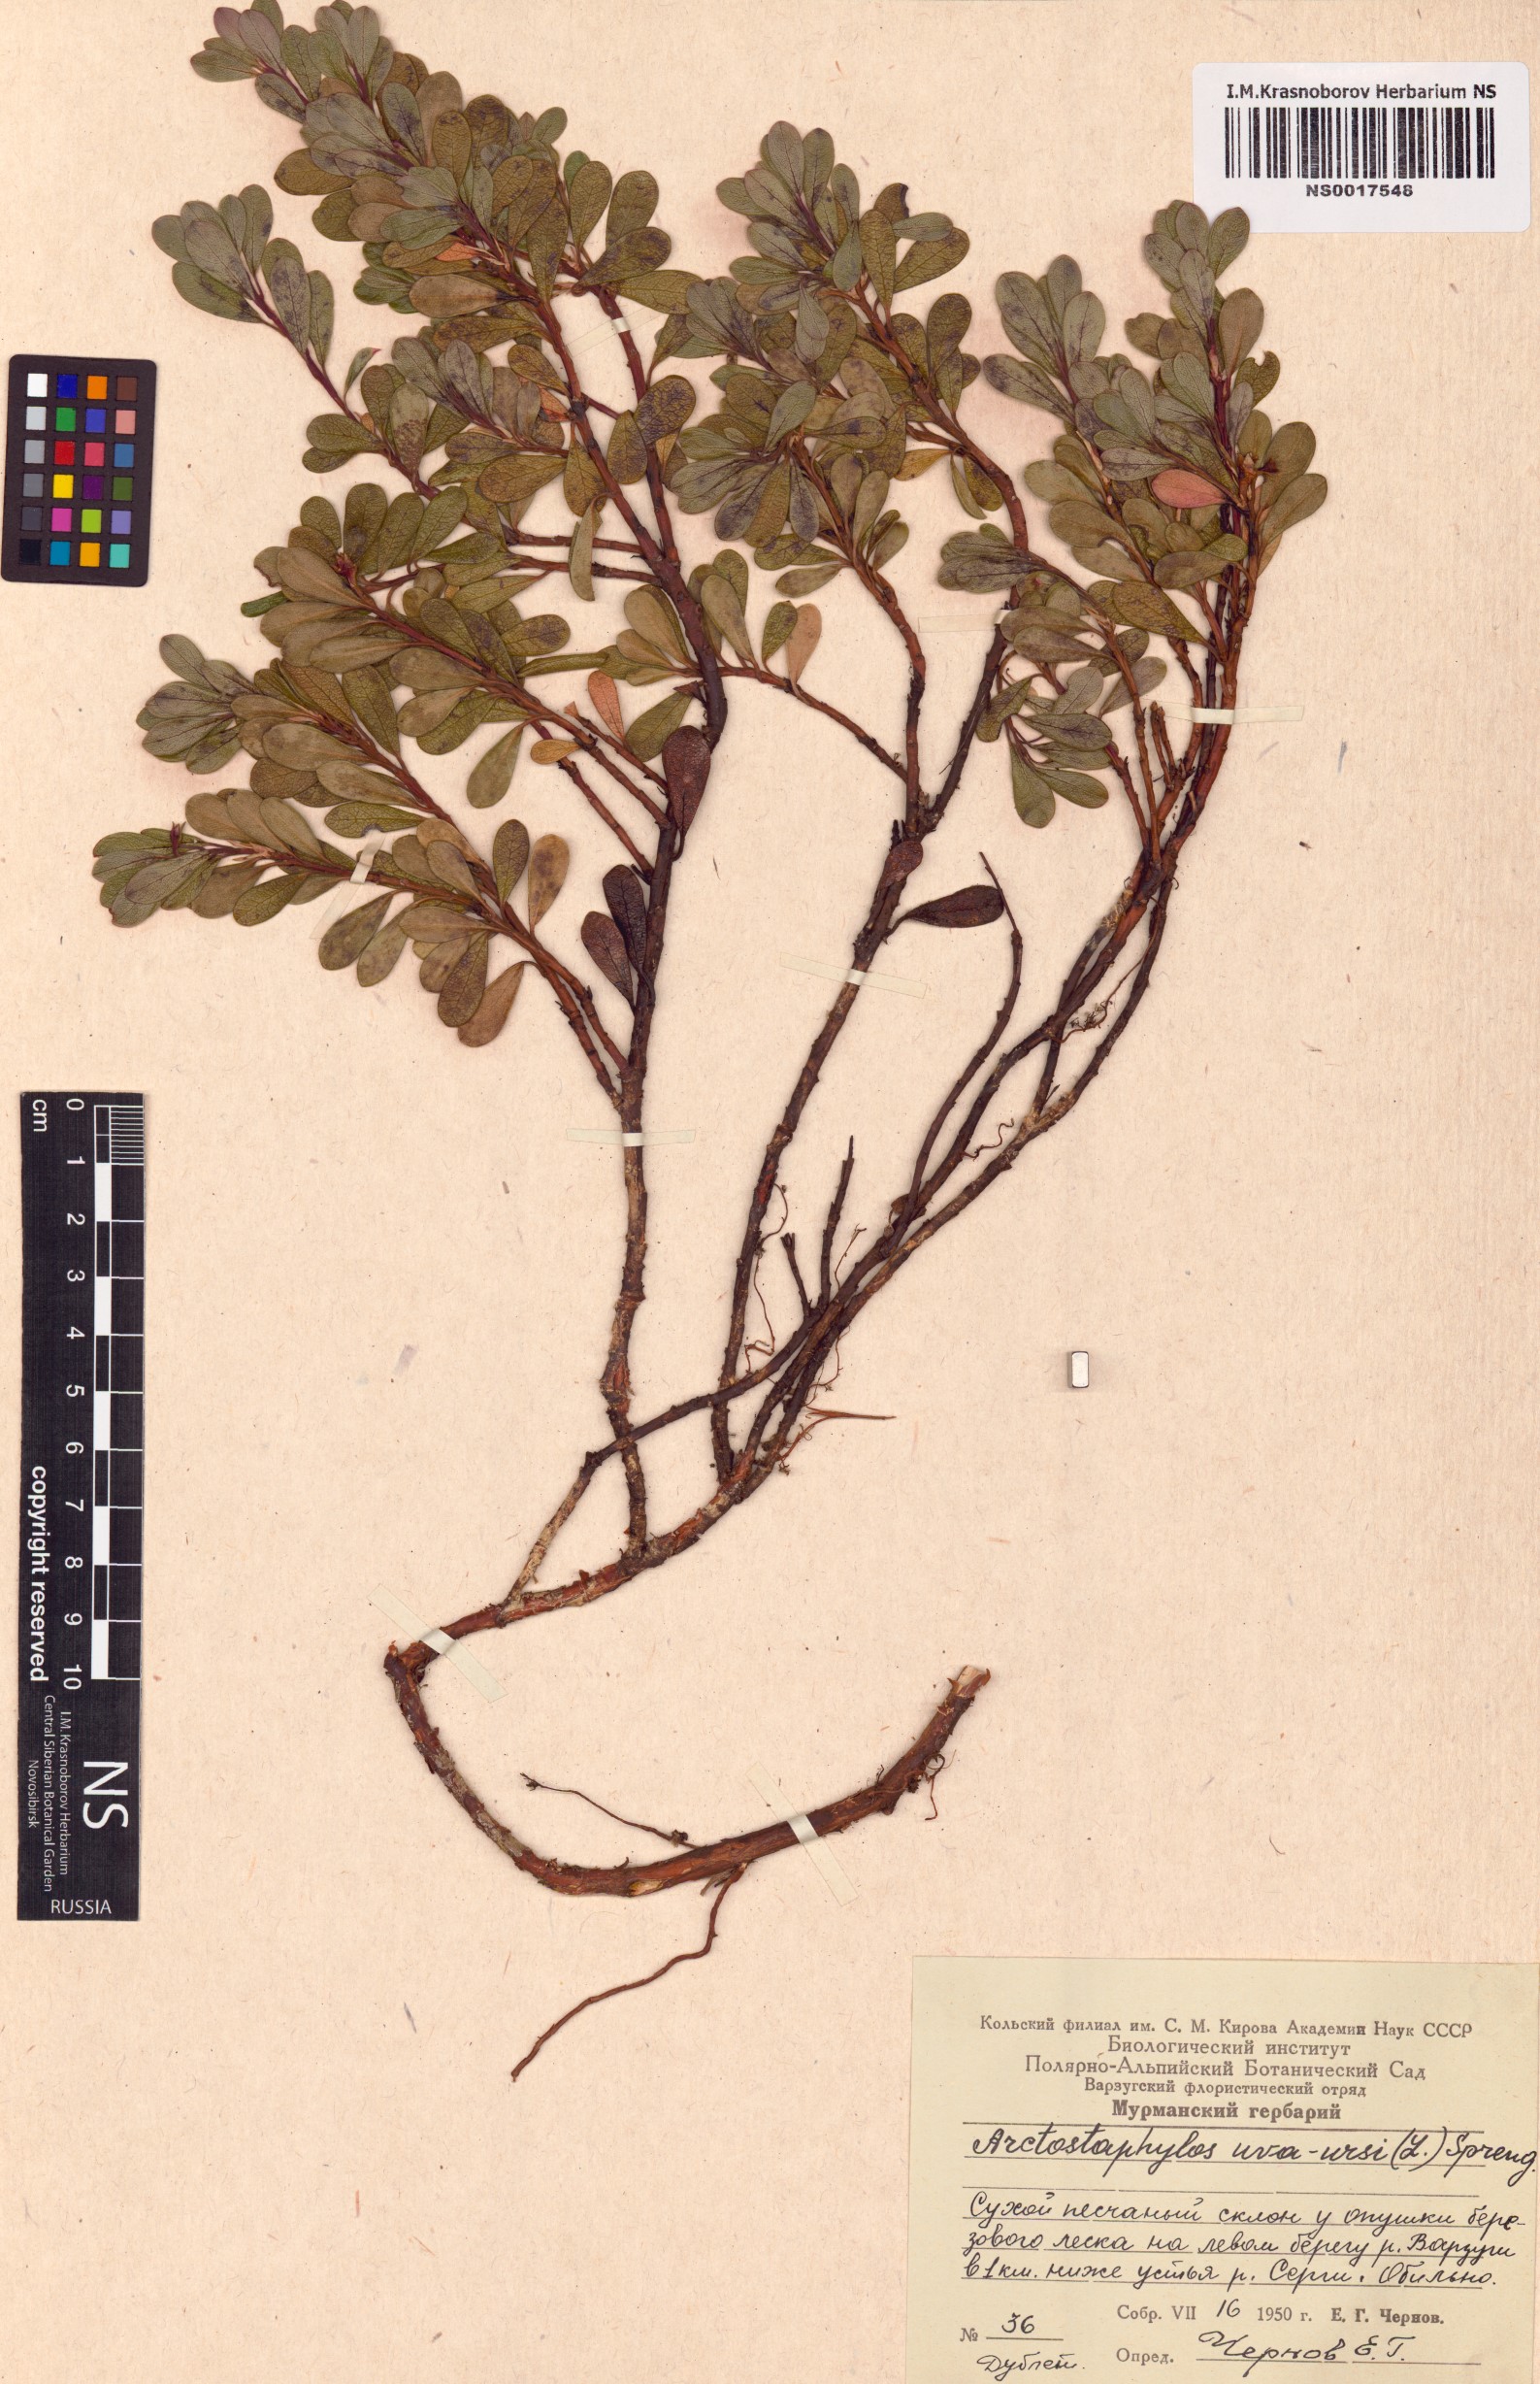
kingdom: Plantae
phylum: Tracheophyta
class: Magnoliopsida
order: Ericales
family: Ericaceae
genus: Arctostaphylos
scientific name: Arctostaphylos uva-ursi
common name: Bearberry
